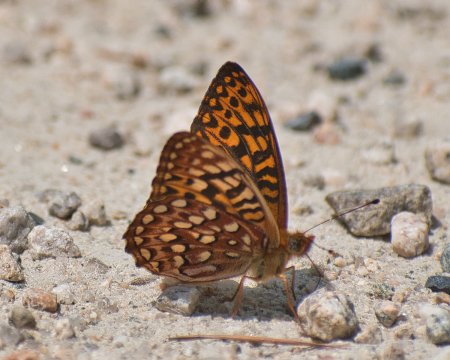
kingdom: Animalia
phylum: Arthropoda
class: Insecta
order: Lepidoptera
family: Nymphalidae
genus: Speyeria
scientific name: Speyeria hydaspe
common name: Hydaspe Fritillary
